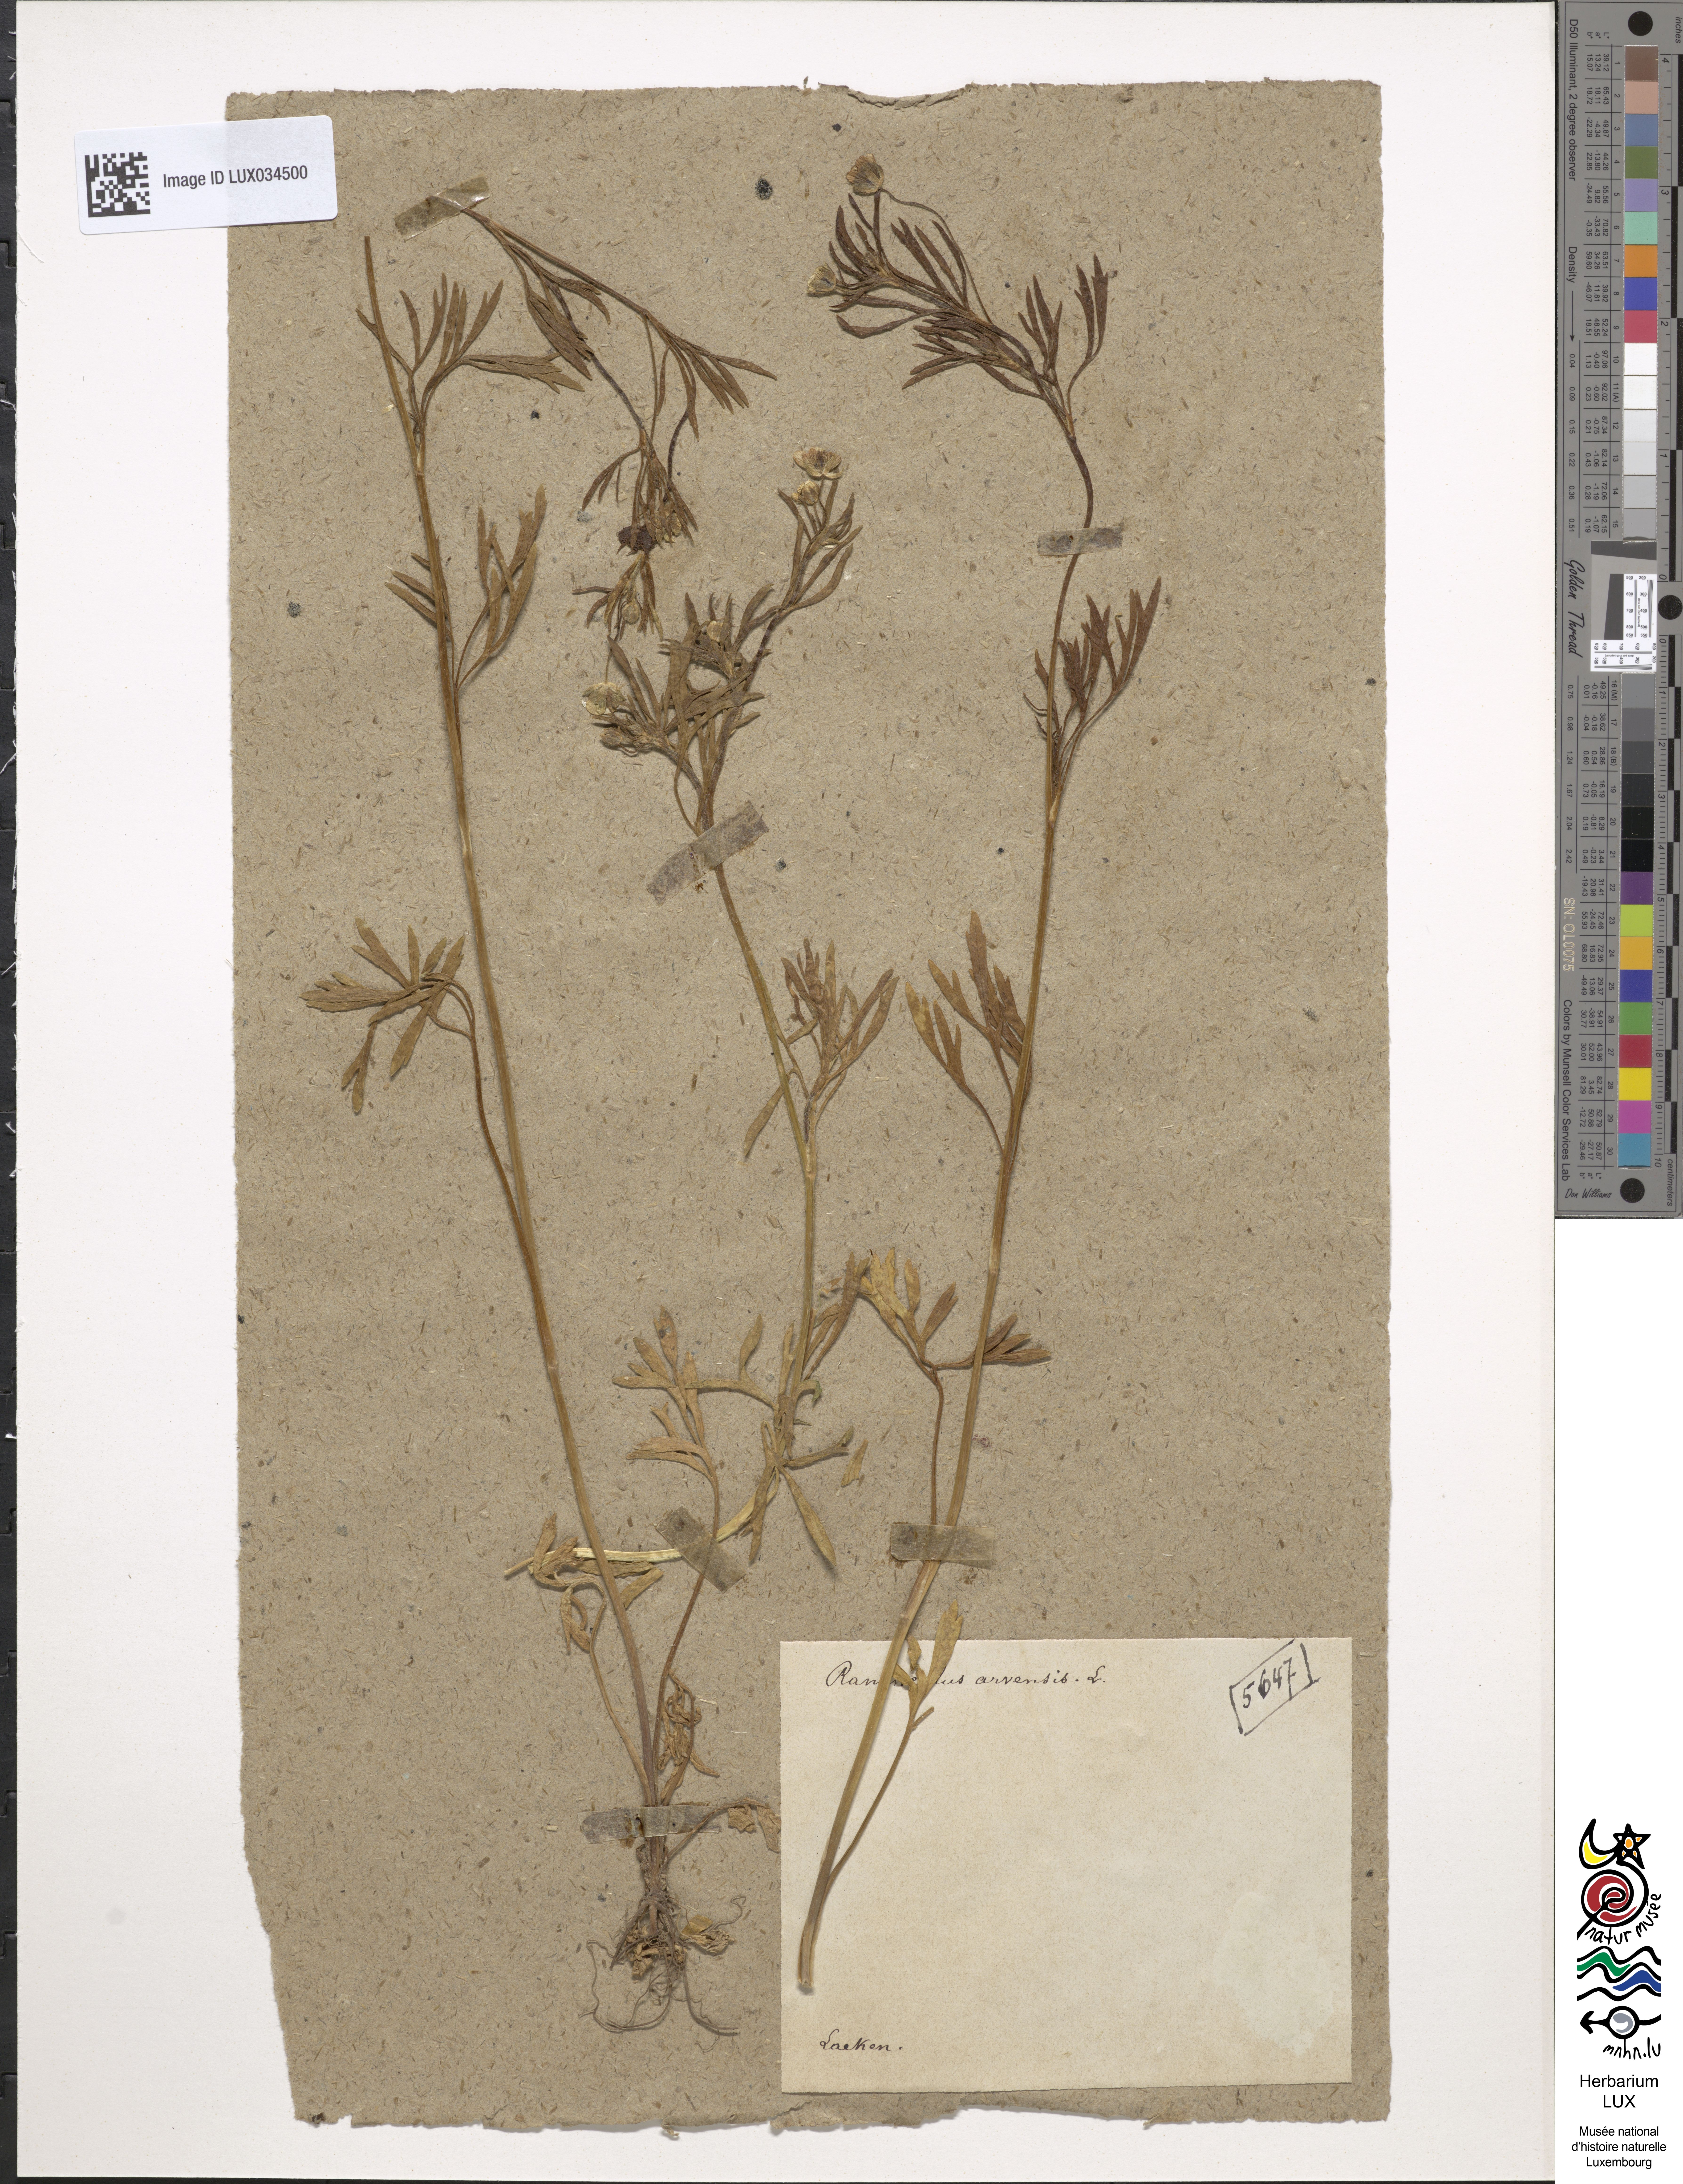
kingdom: Plantae
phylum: Tracheophyta
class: Magnoliopsida
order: Ranunculales
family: Ranunculaceae
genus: Ranunculus
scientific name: Ranunculus arvensis
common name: Corn buttercup
